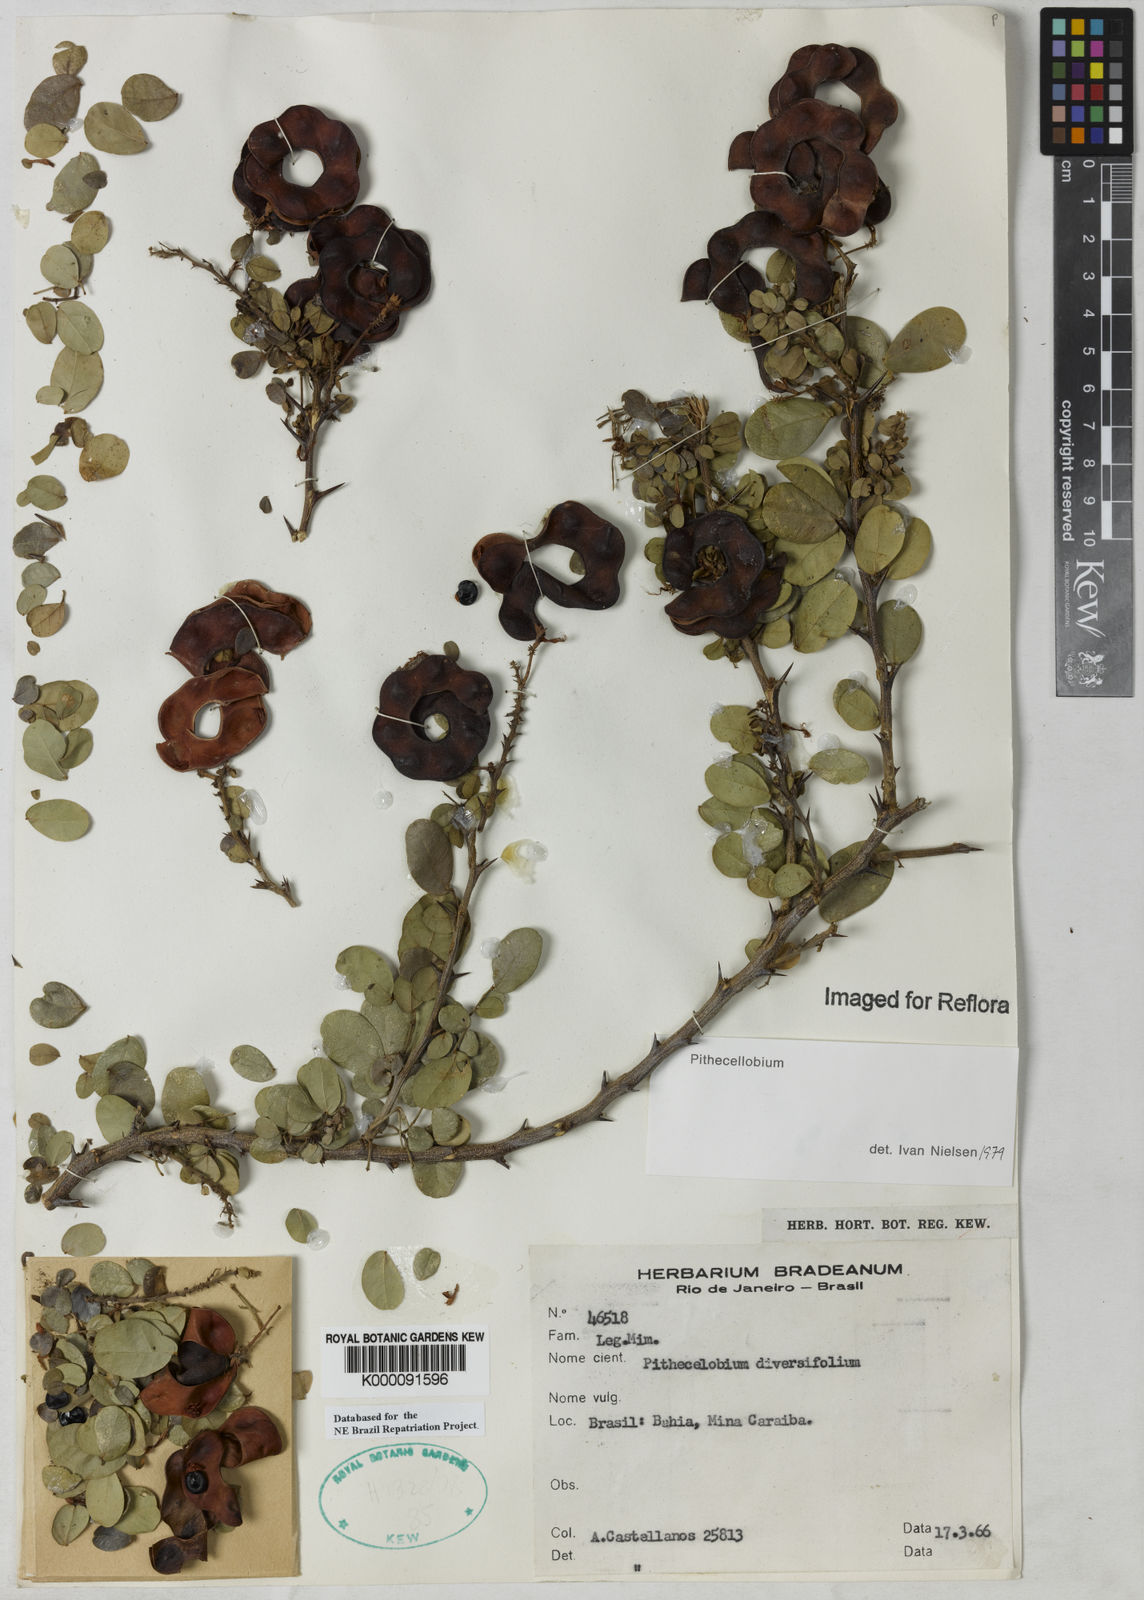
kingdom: Plantae
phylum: Tracheophyta
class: Magnoliopsida
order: Fabales
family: Fabaceae
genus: Pithecellobium
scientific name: Pithecellobium diversifolium
